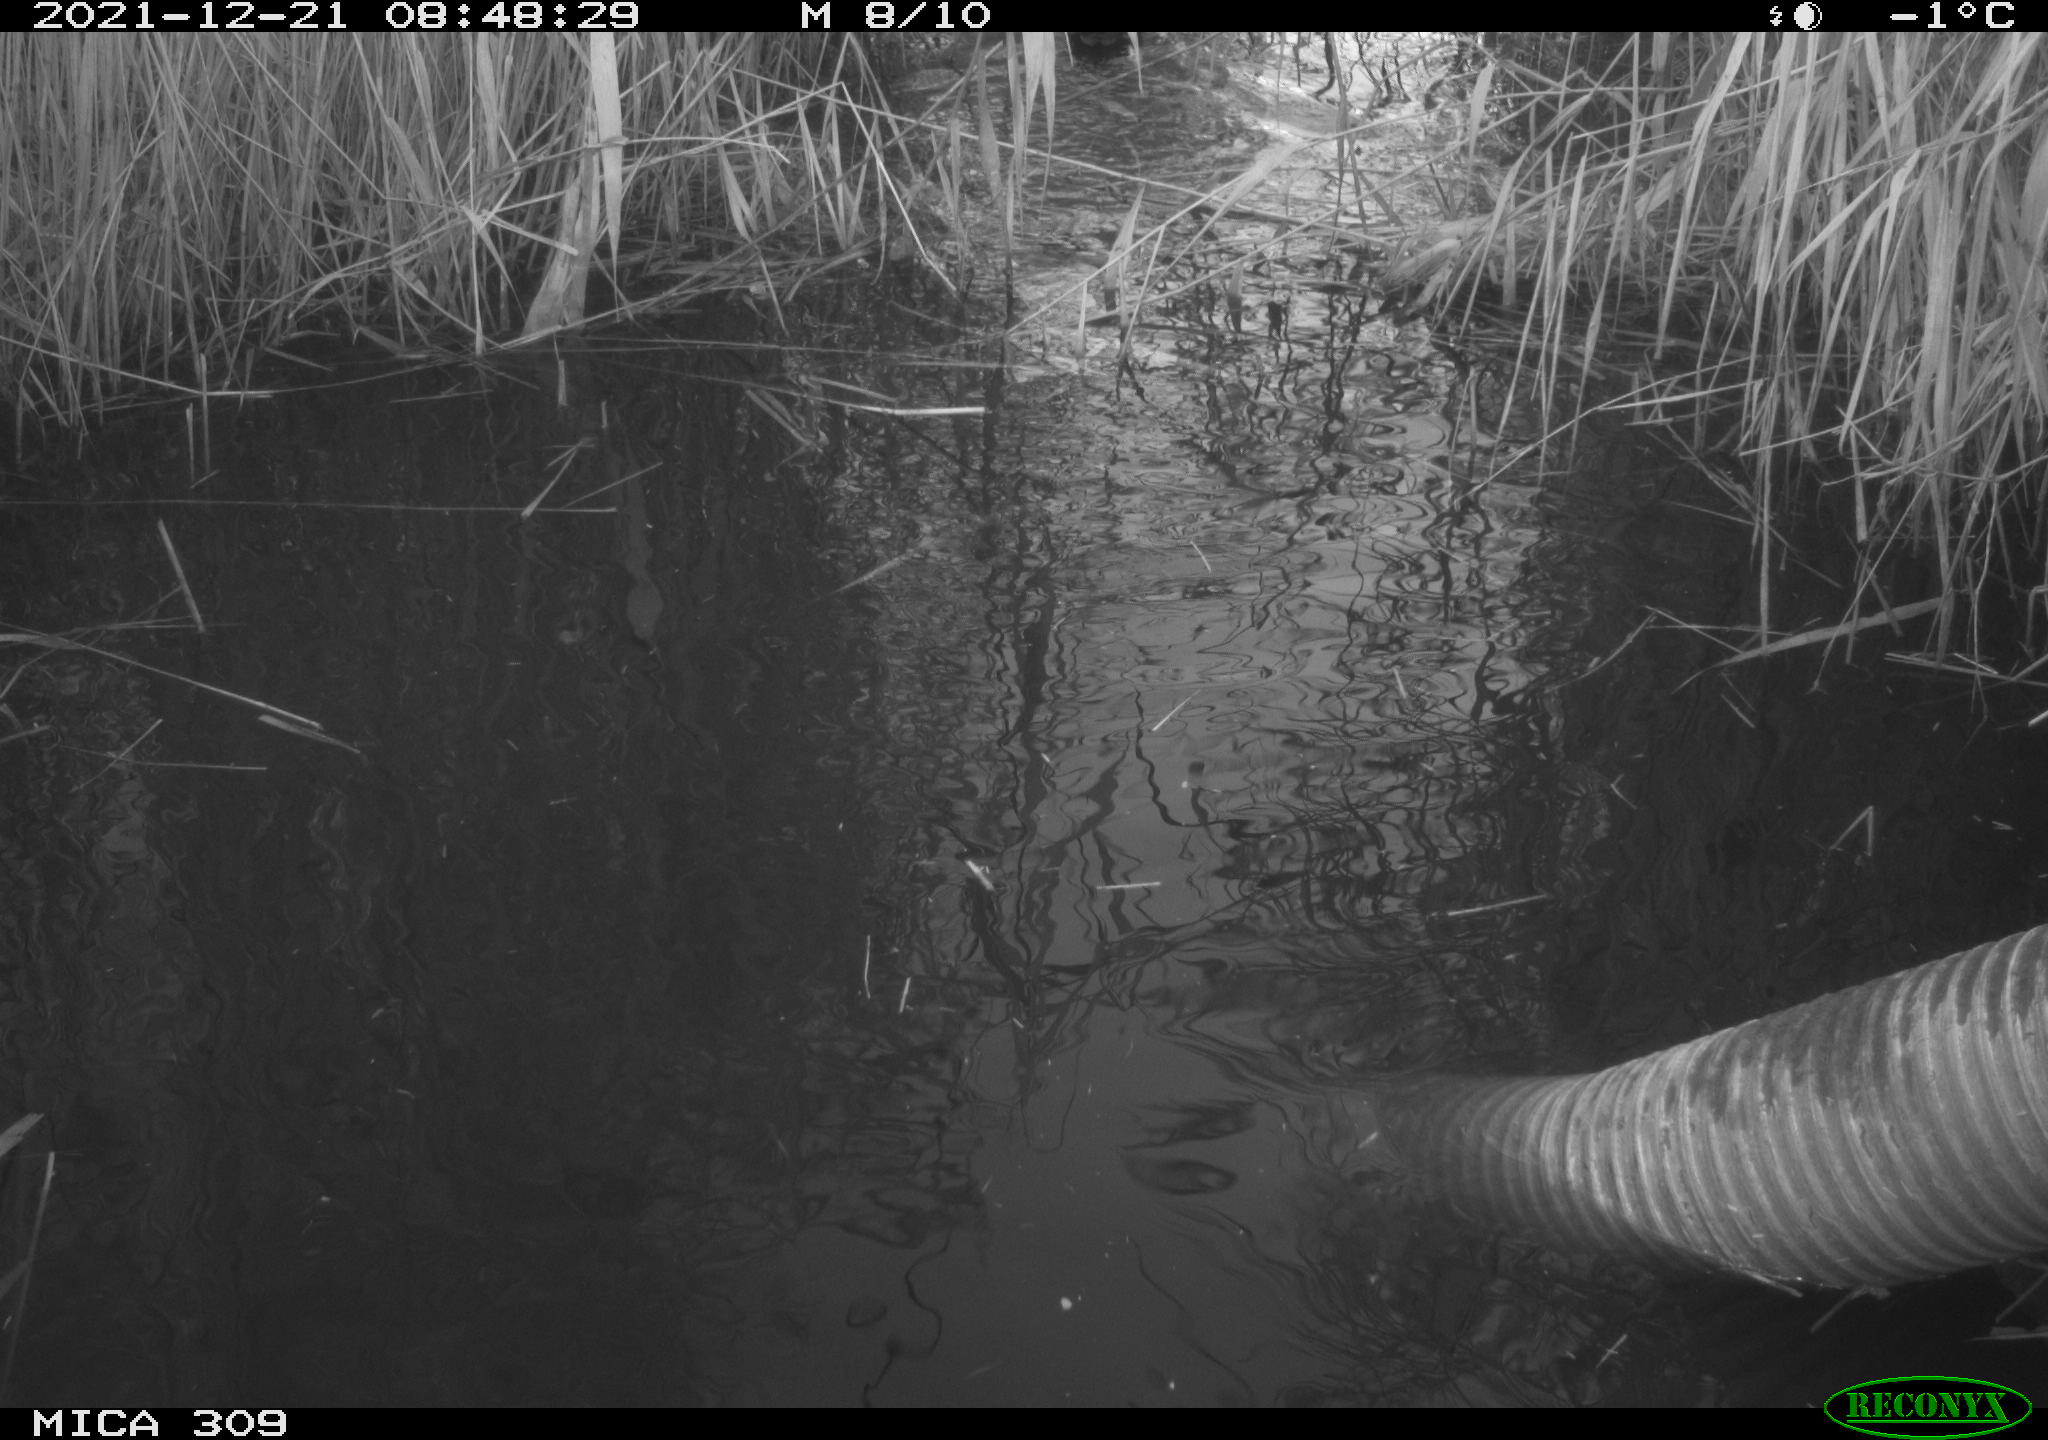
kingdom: Animalia
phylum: Chordata
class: Aves
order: Gruiformes
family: Rallidae
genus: Gallinula
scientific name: Gallinula chloropus
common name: Common moorhen
